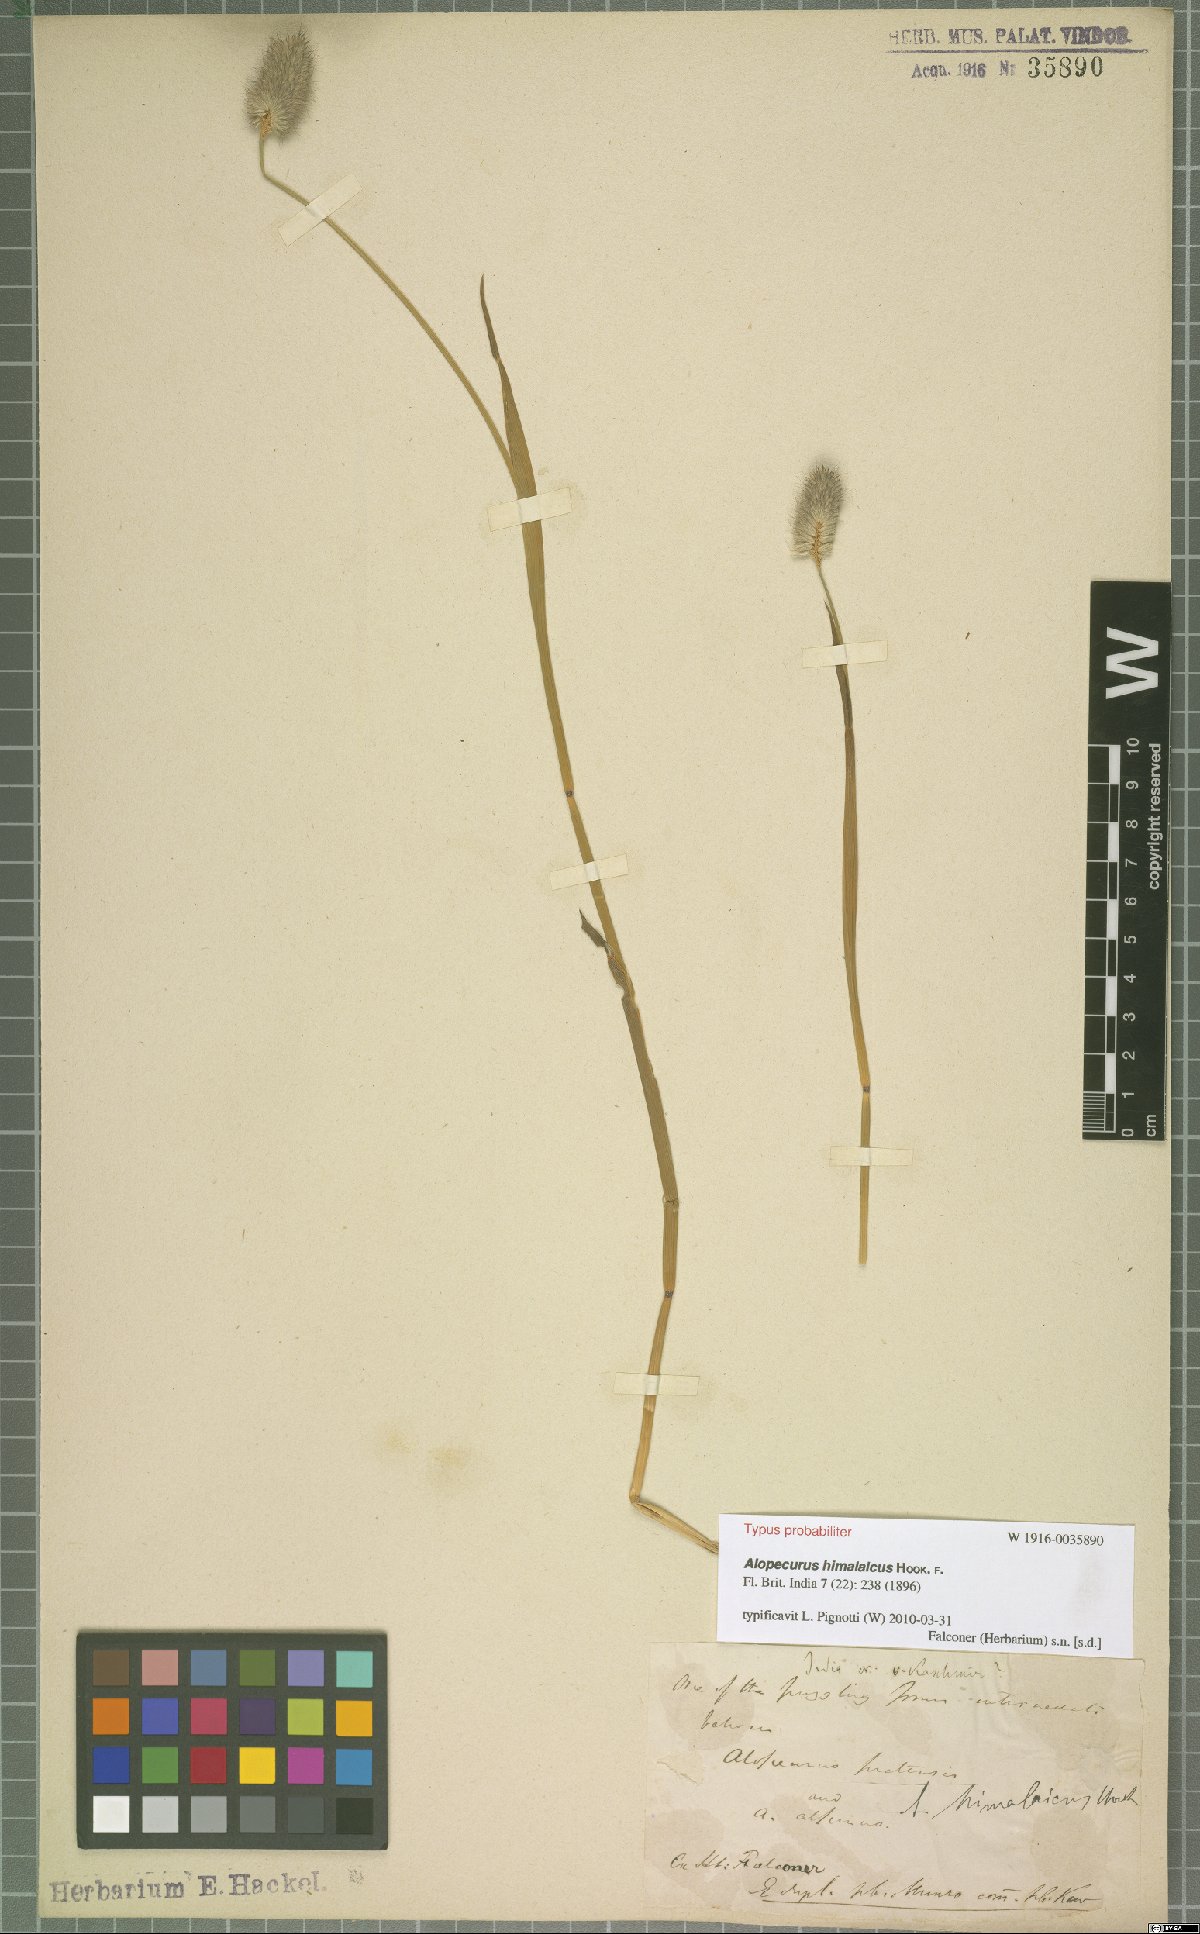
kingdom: Plantae
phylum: Tracheophyta
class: Liliopsida
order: Poales
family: Poaceae
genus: Alopecurus
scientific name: Alopecurus himalaicus
